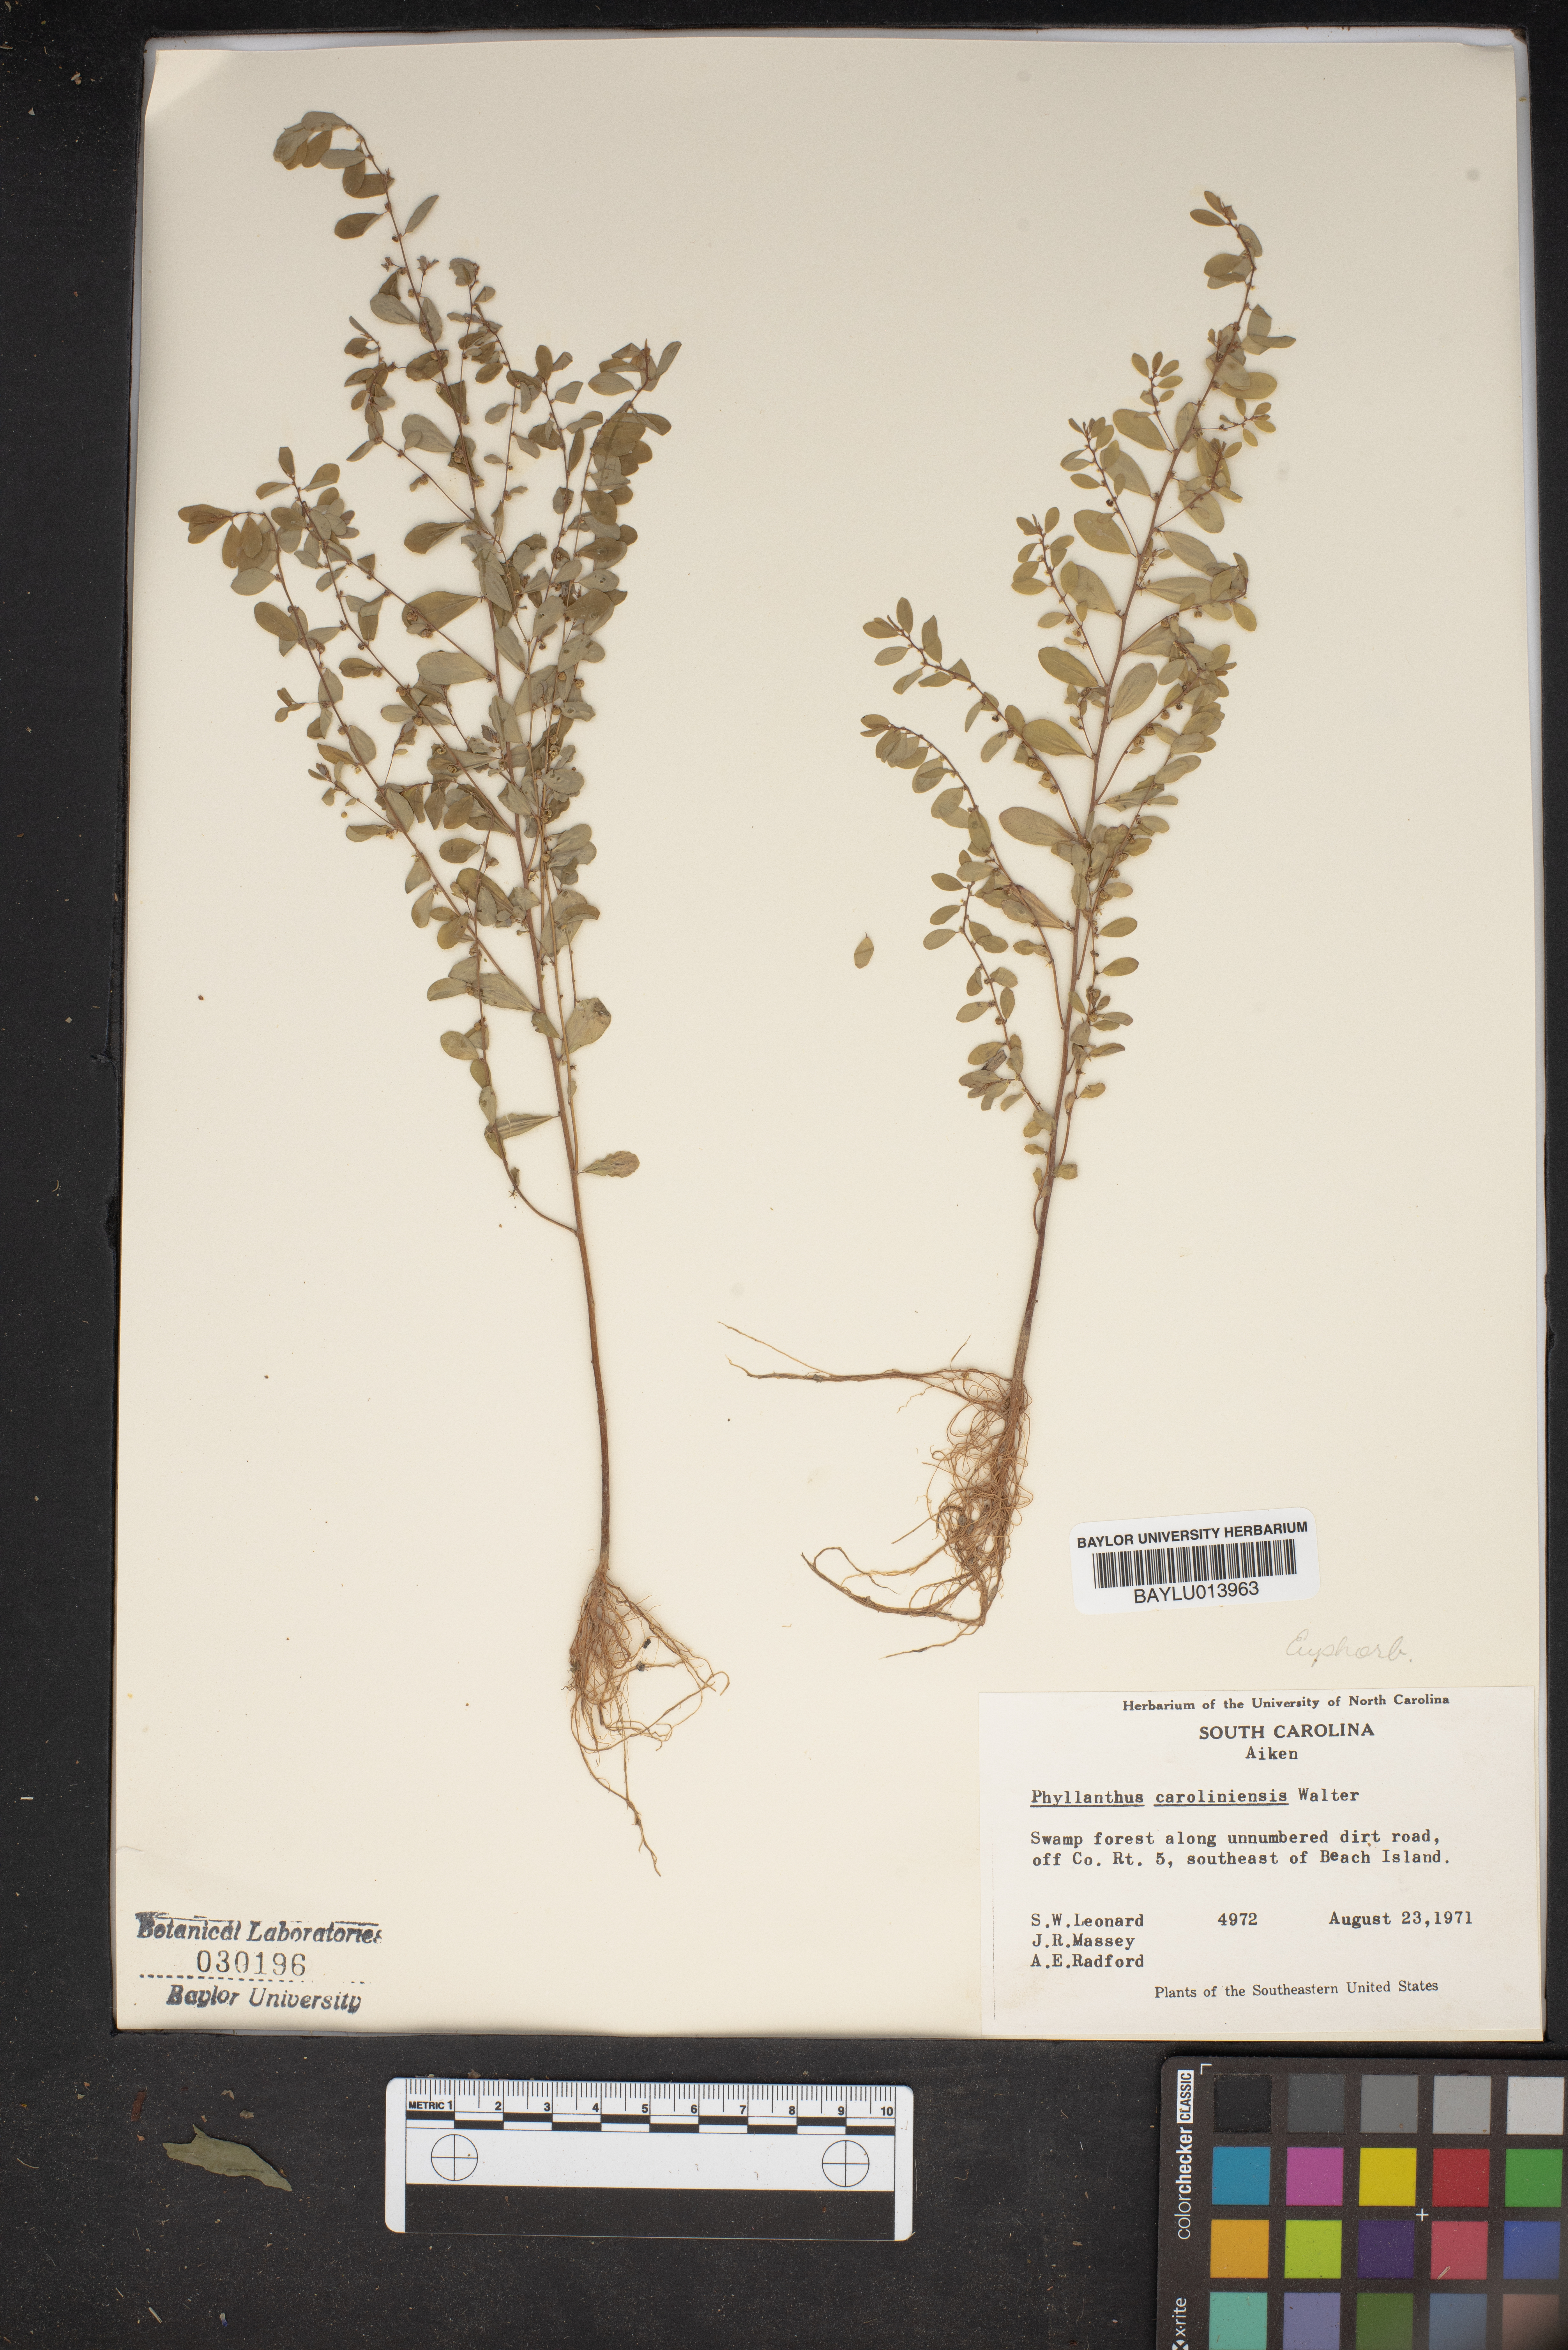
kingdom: Plantae
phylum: Tracheophyta
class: Magnoliopsida
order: Malpighiales
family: Phyllanthaceae
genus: Phyllanthus
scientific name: Phyllanthus caroliniensis
